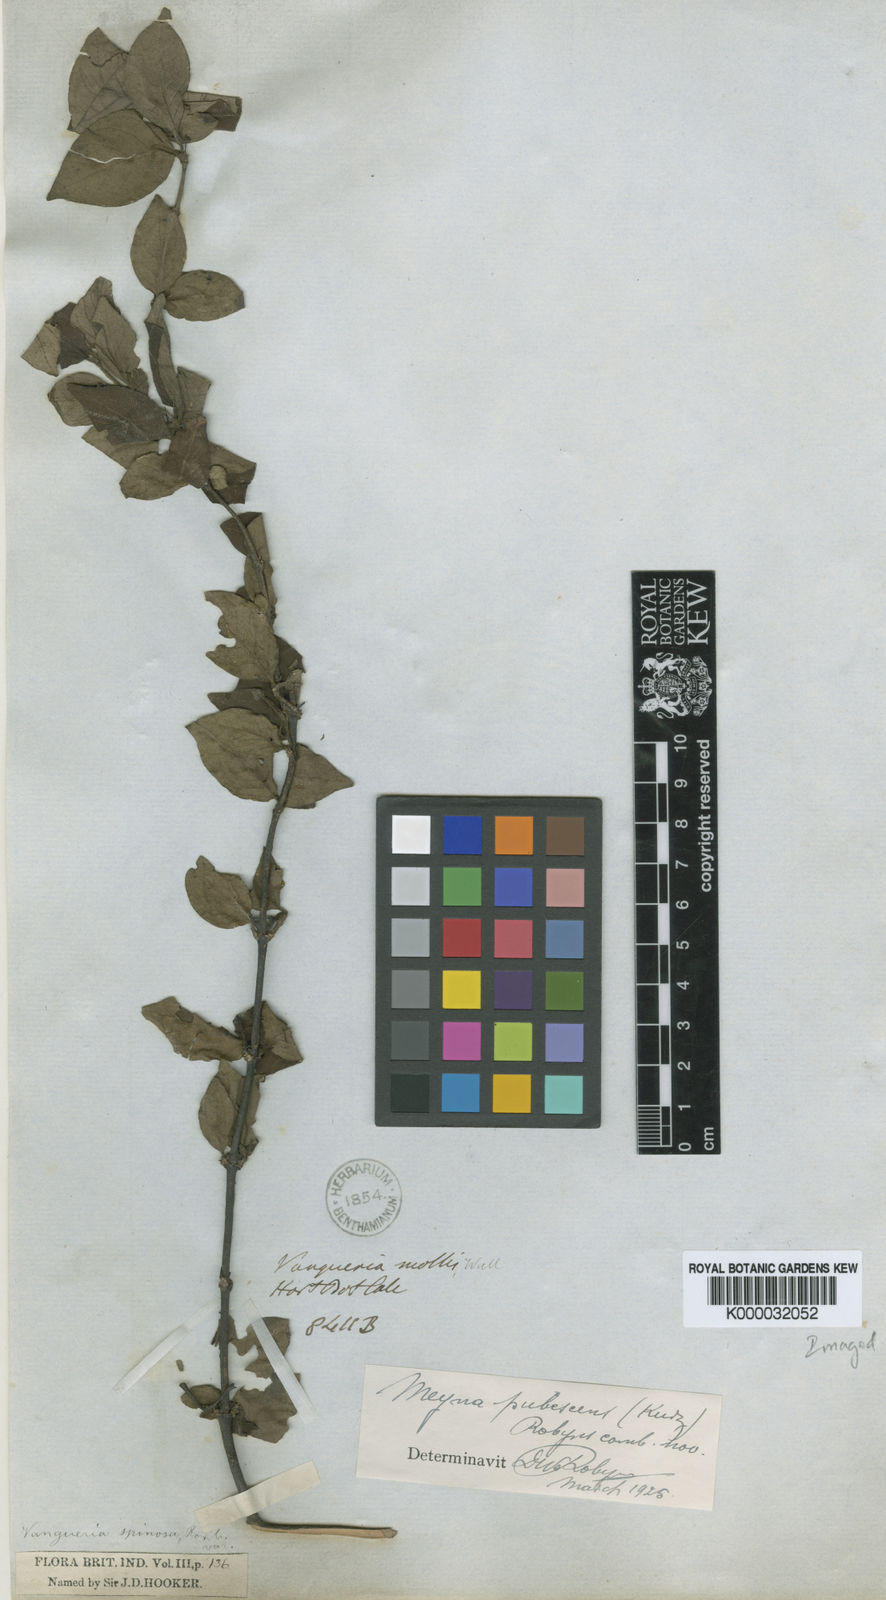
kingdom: Plantae
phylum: Tracheophyta
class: Magnoliopsida
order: Gentianales
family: Rubiaceae
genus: Meyna
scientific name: Meyna pubescens
